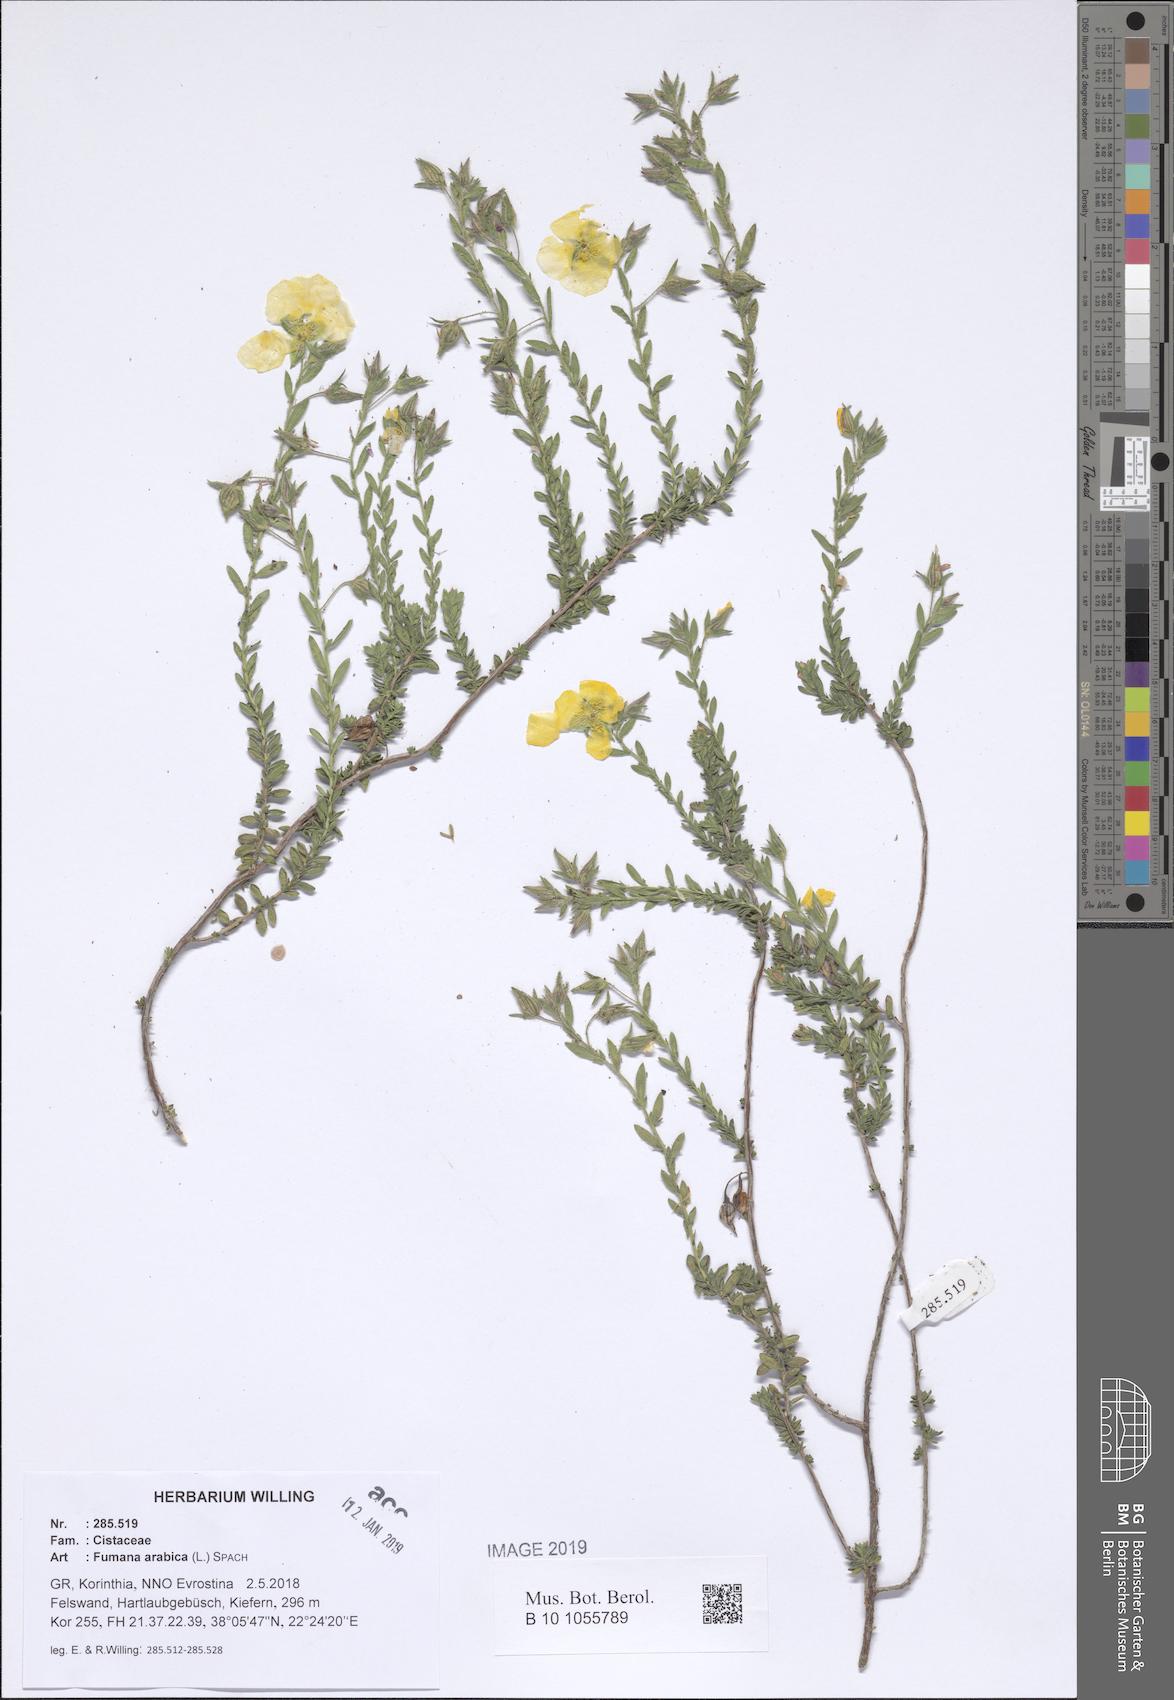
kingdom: Plantae
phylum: Tracheophyta
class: Magnoliopsida
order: Malvales
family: Cistaceae
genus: Fumana
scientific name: Fumana arabica
